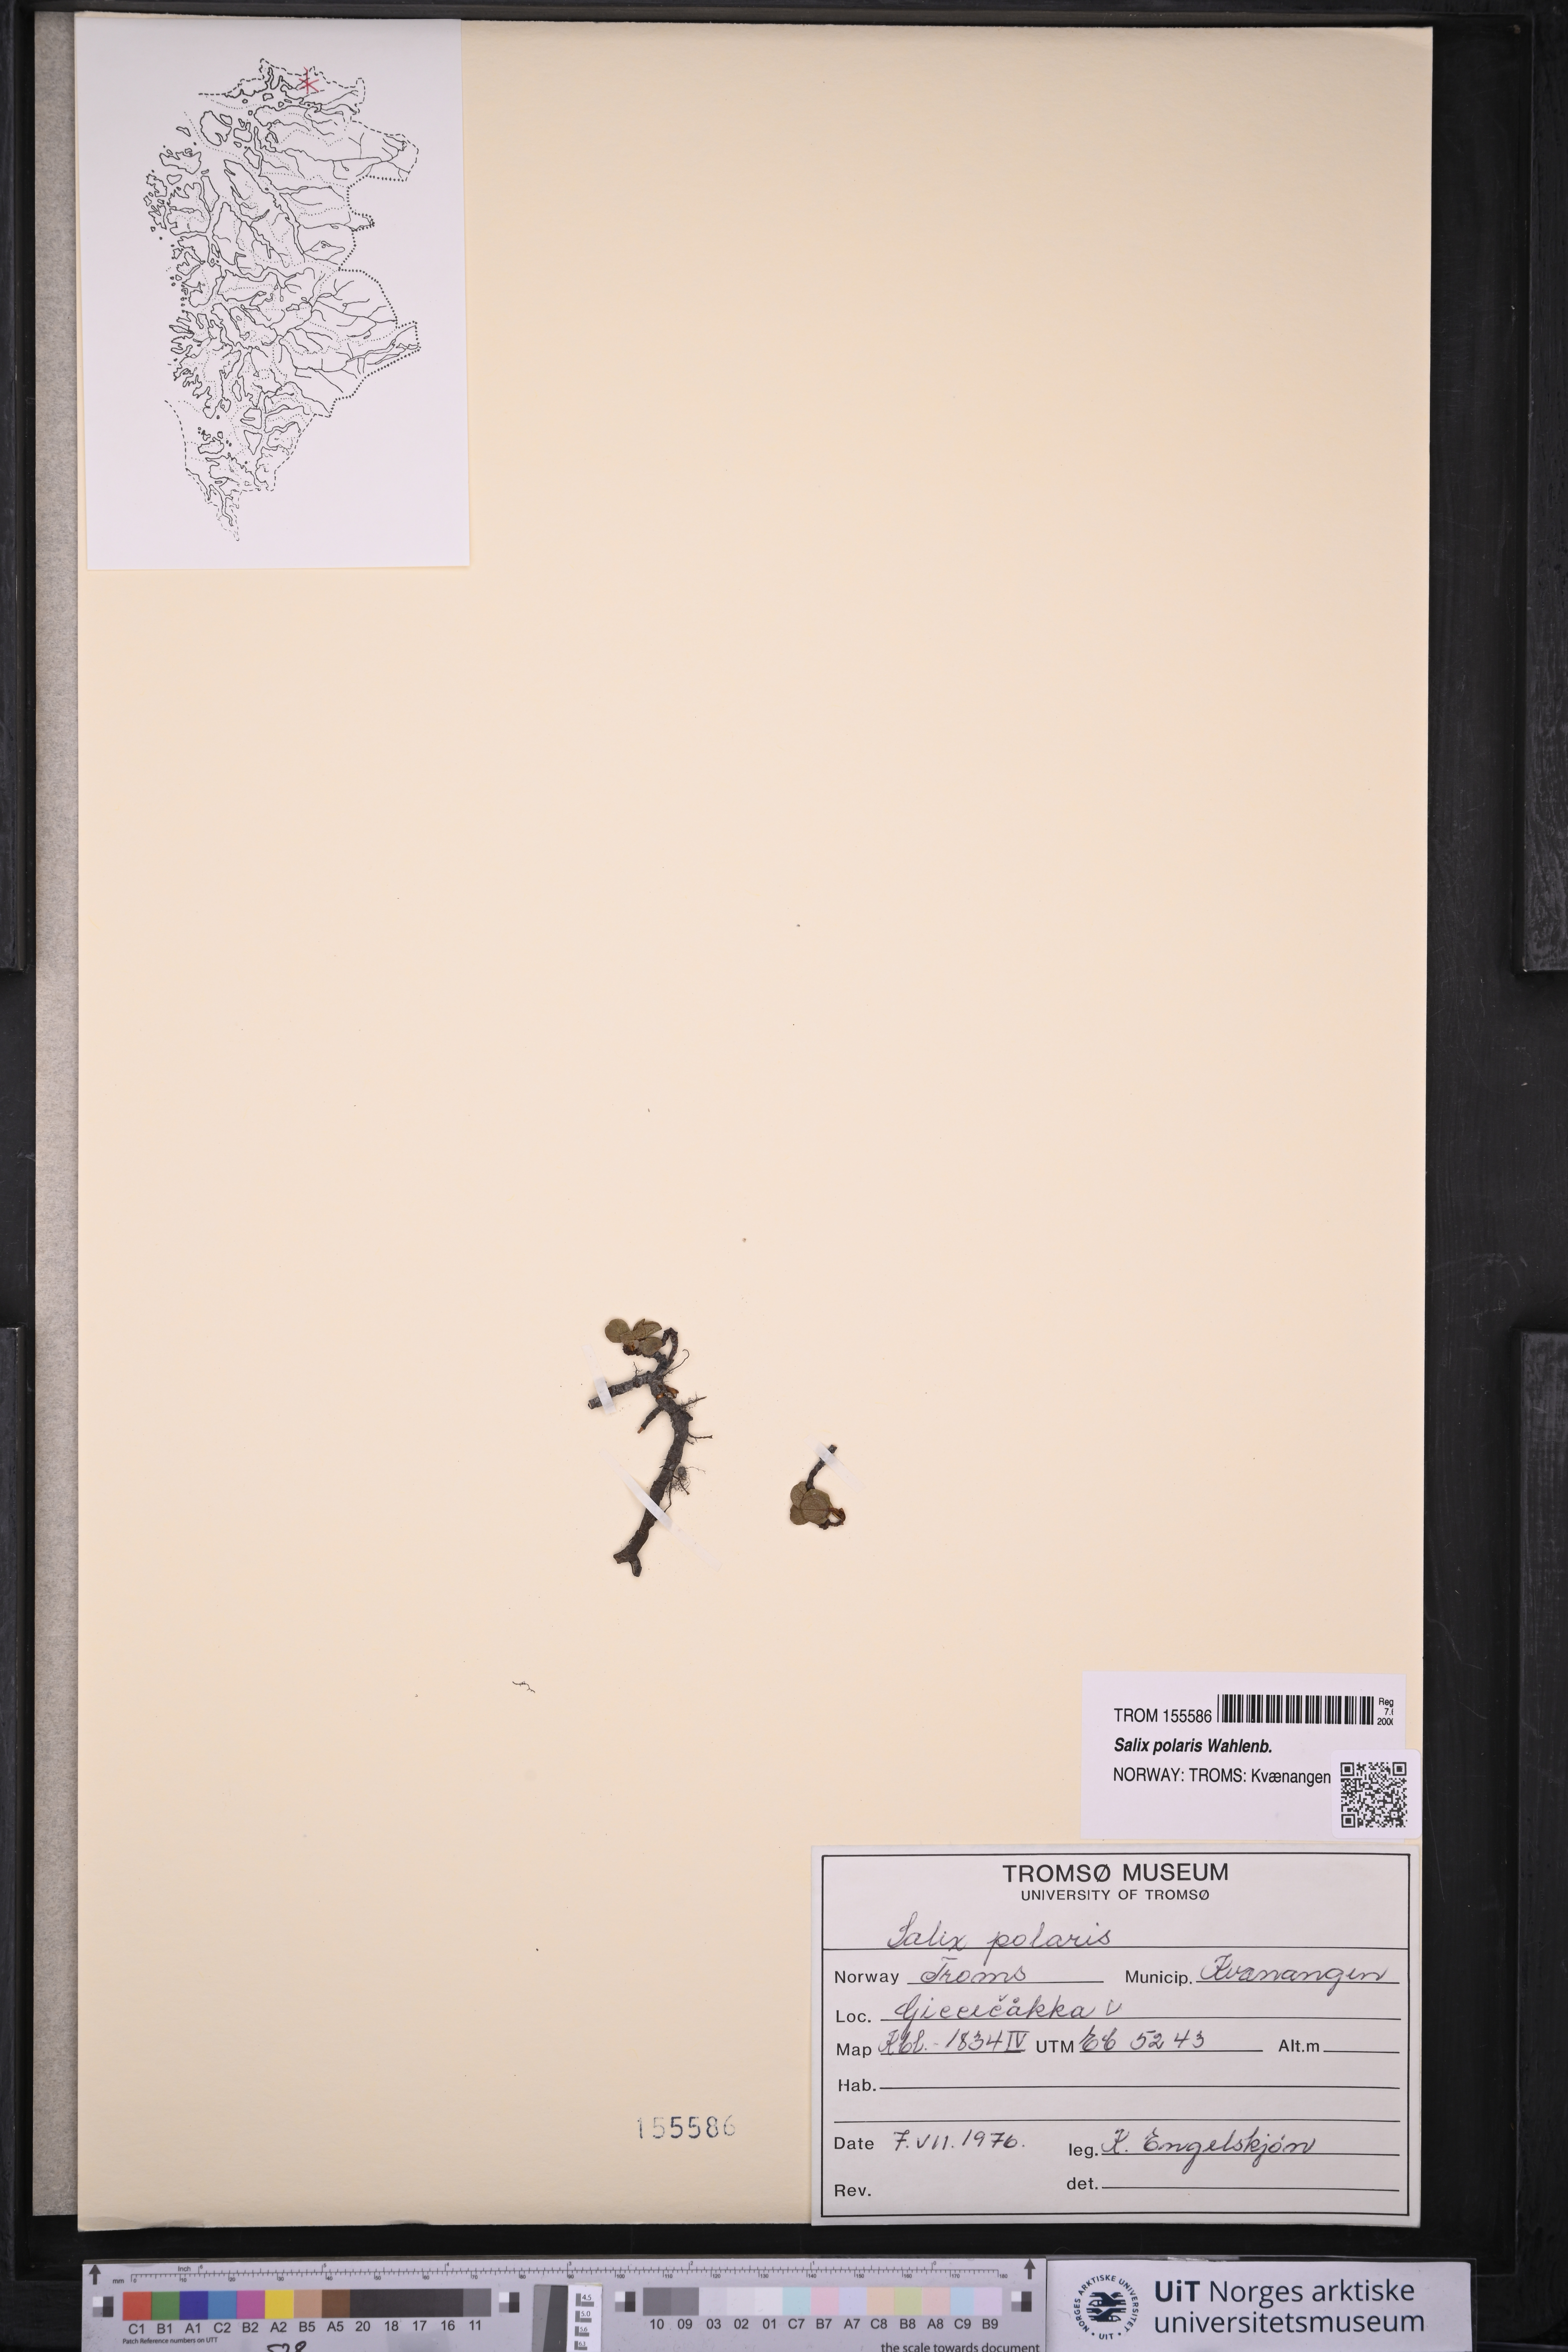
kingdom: Plantae
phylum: Tracheophyta
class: Magnoliopsida
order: Malpighiales
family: Salicaceae
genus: Salix
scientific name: Salix polaris
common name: Polar willow
